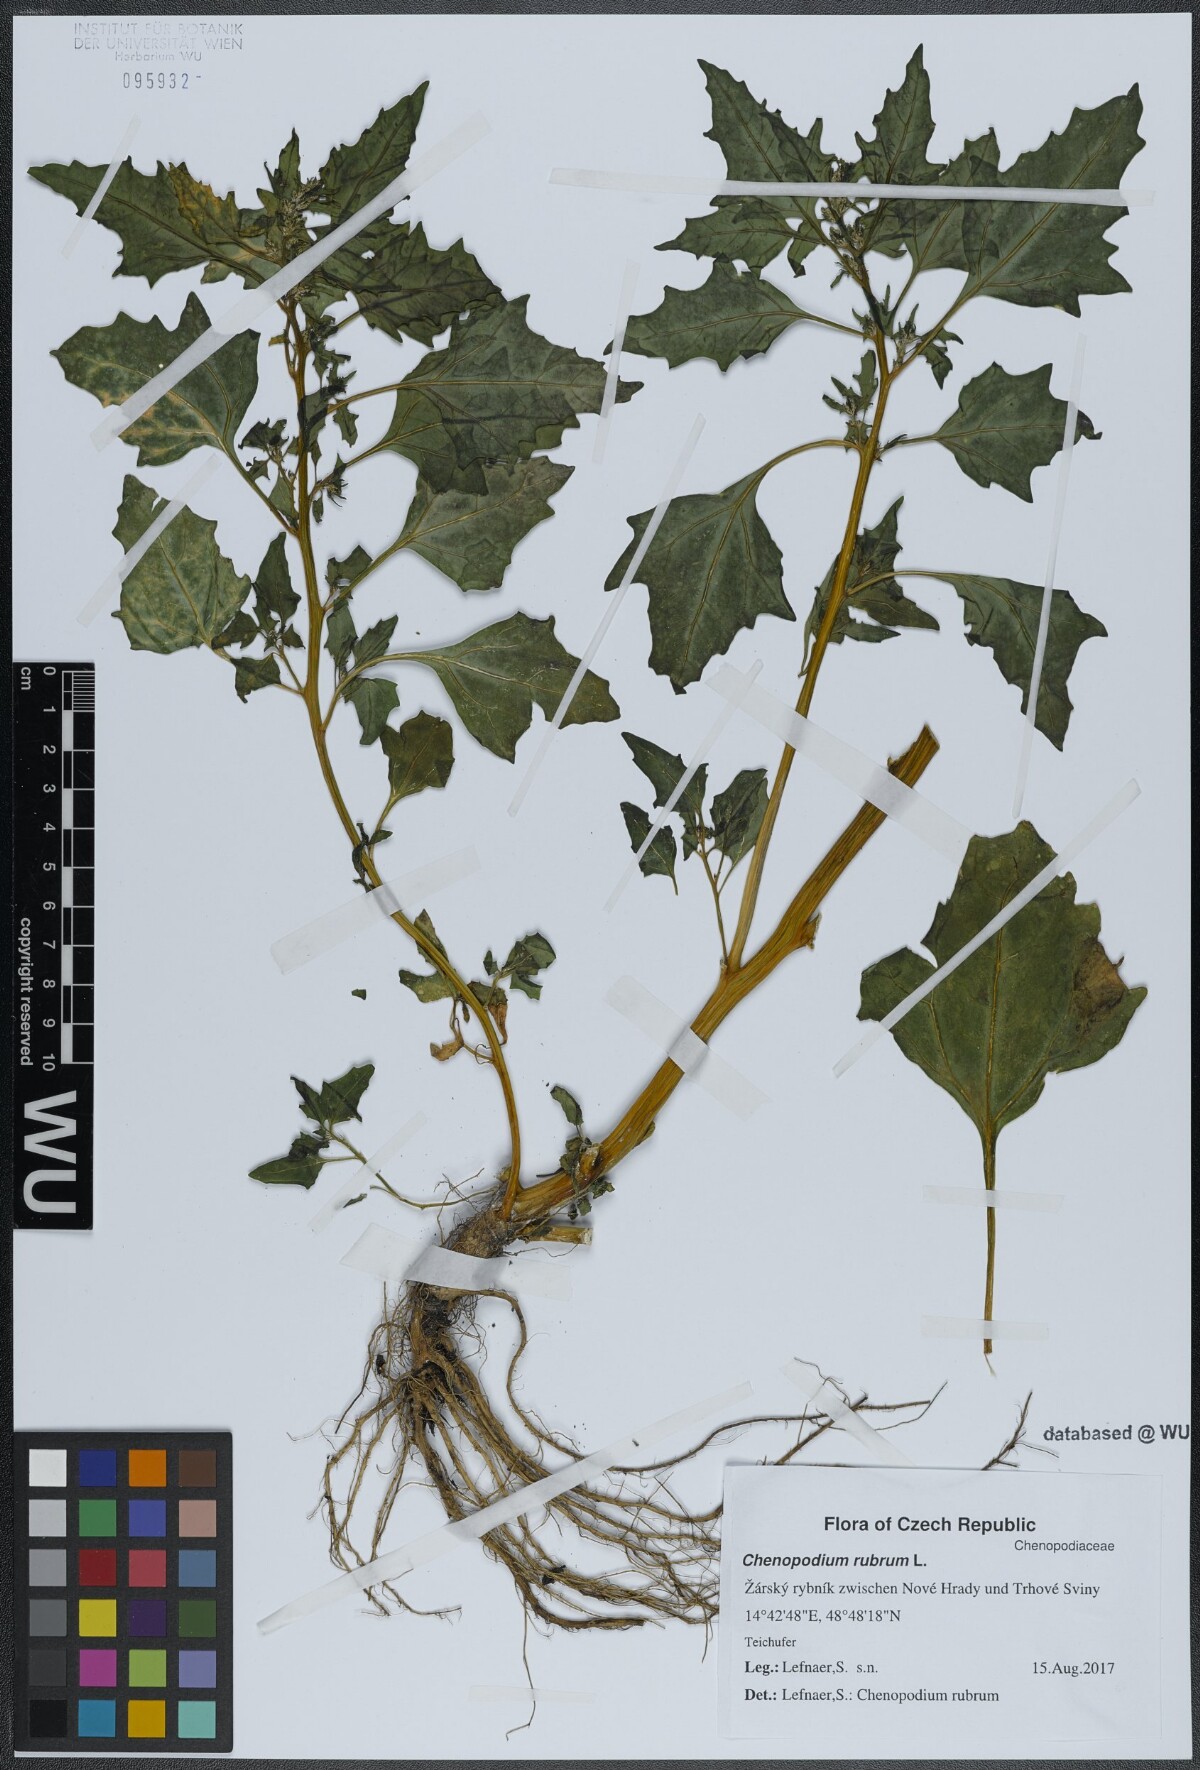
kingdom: Plantae
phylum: Tracheophyta
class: Magnoliopsida
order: Caryophyllales
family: Amaranthaceae
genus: Oxybasis
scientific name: Oxybasis rubra
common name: Red goosefoot
